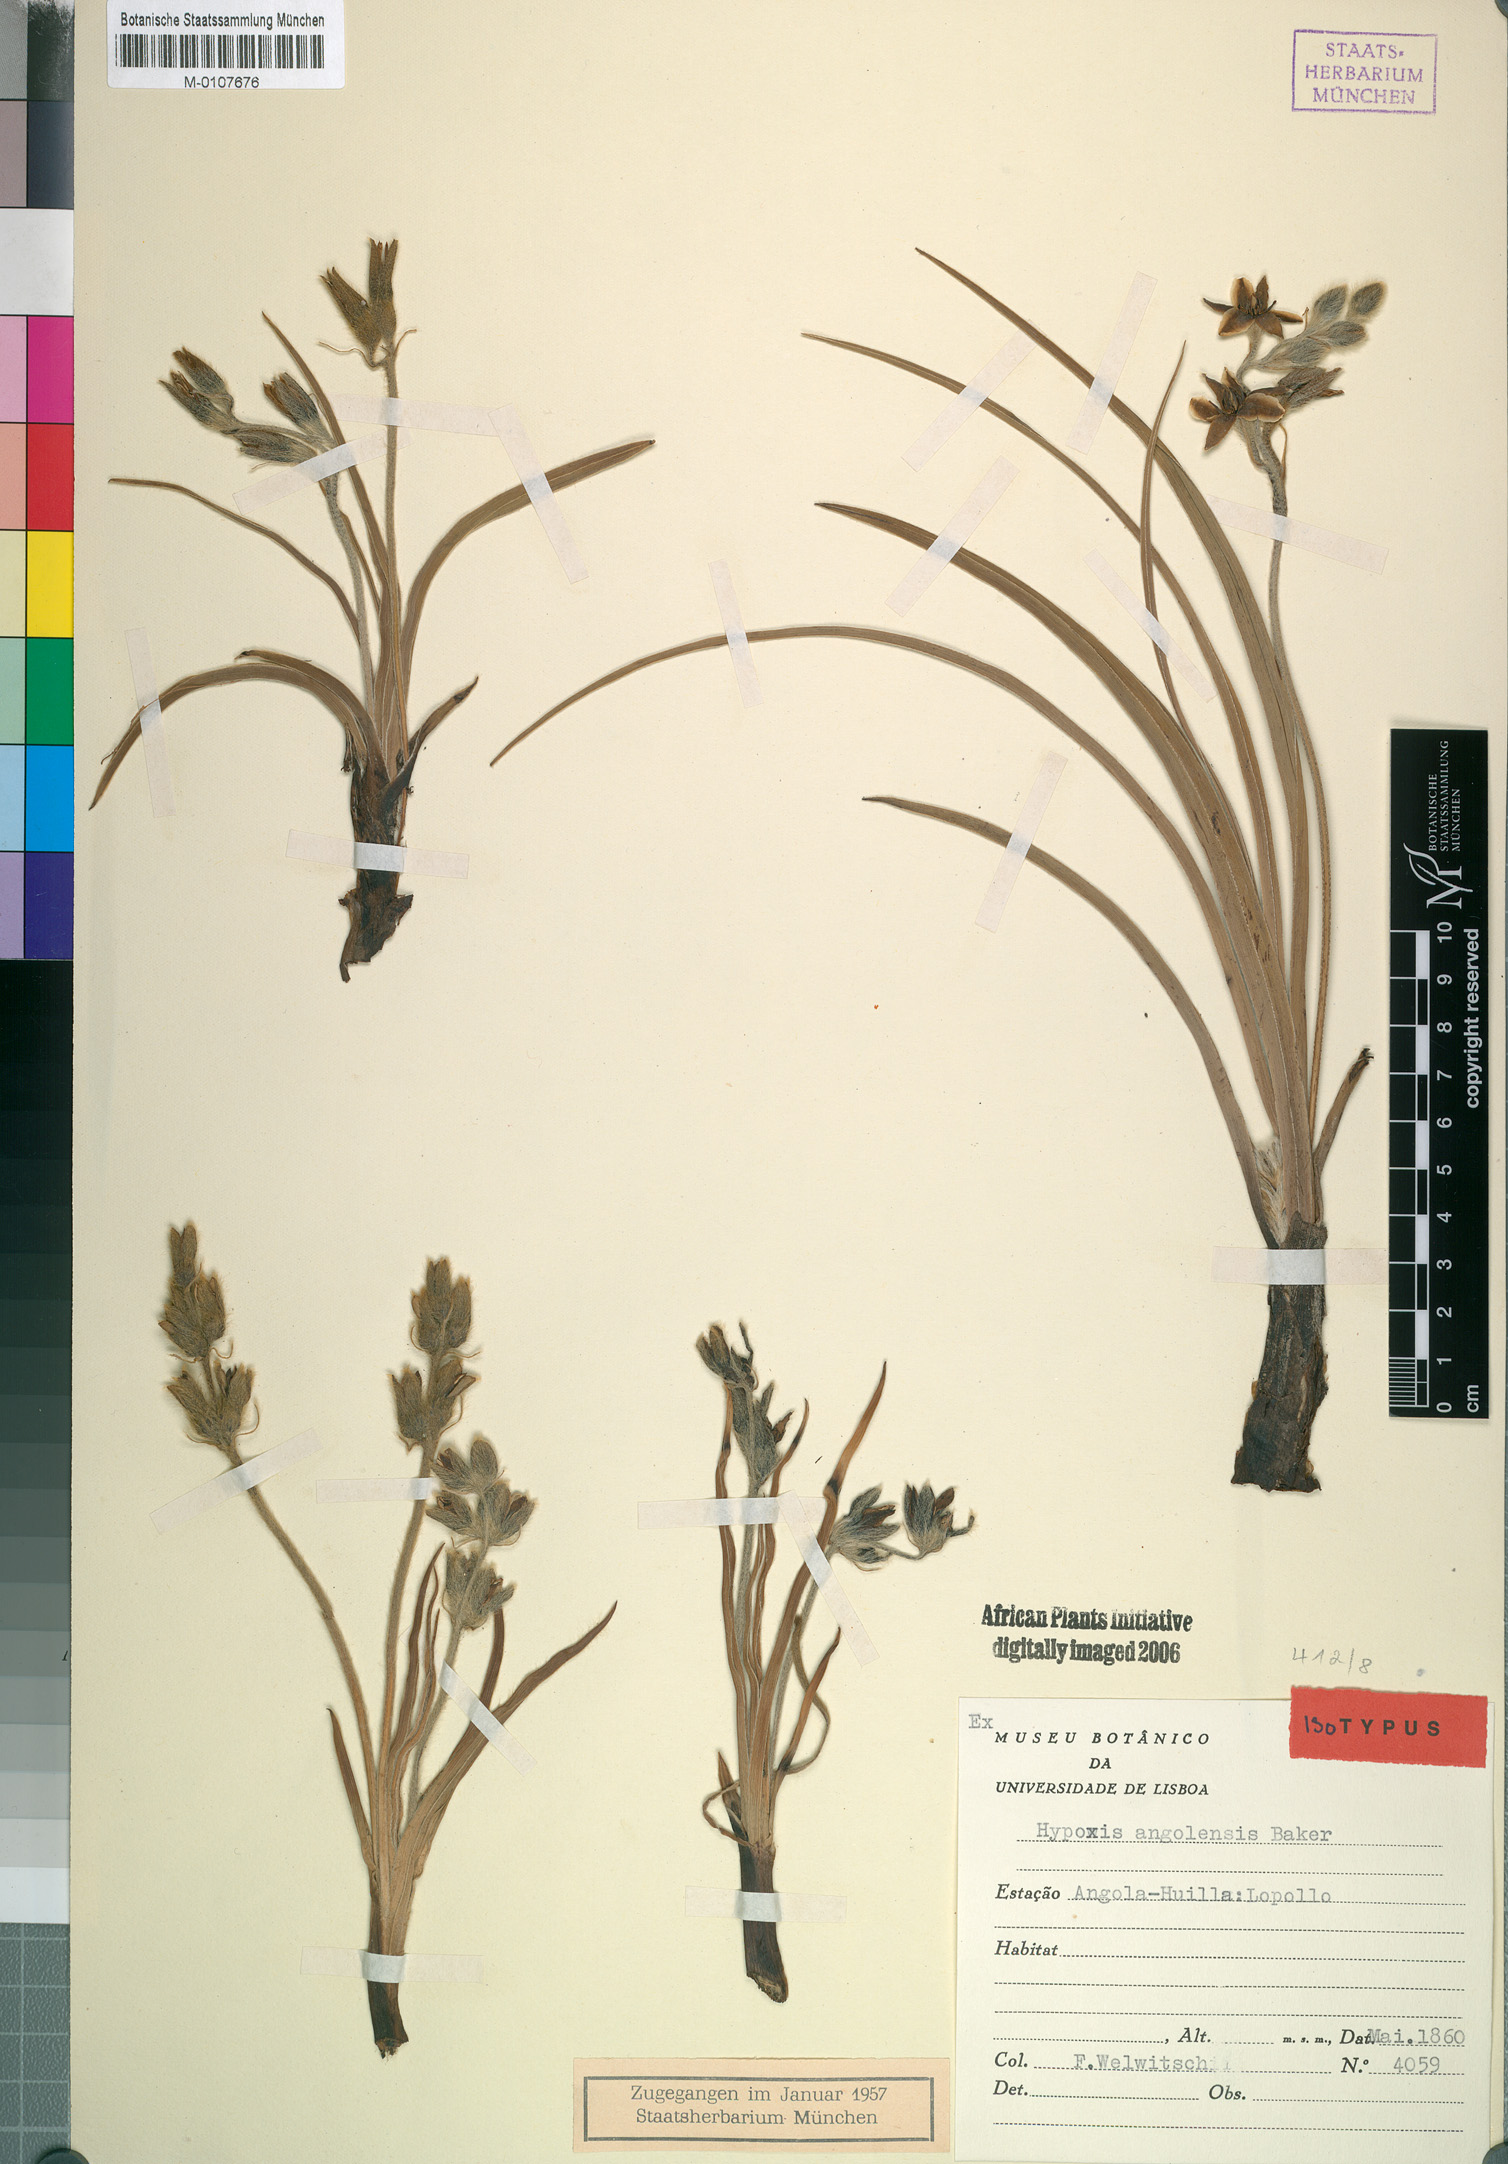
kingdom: Plantae
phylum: Tracheophyta
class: Liliopsida
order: Asparagales
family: Hypoxidaceae
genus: Hypoxis
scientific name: Hypoxis obtusa
